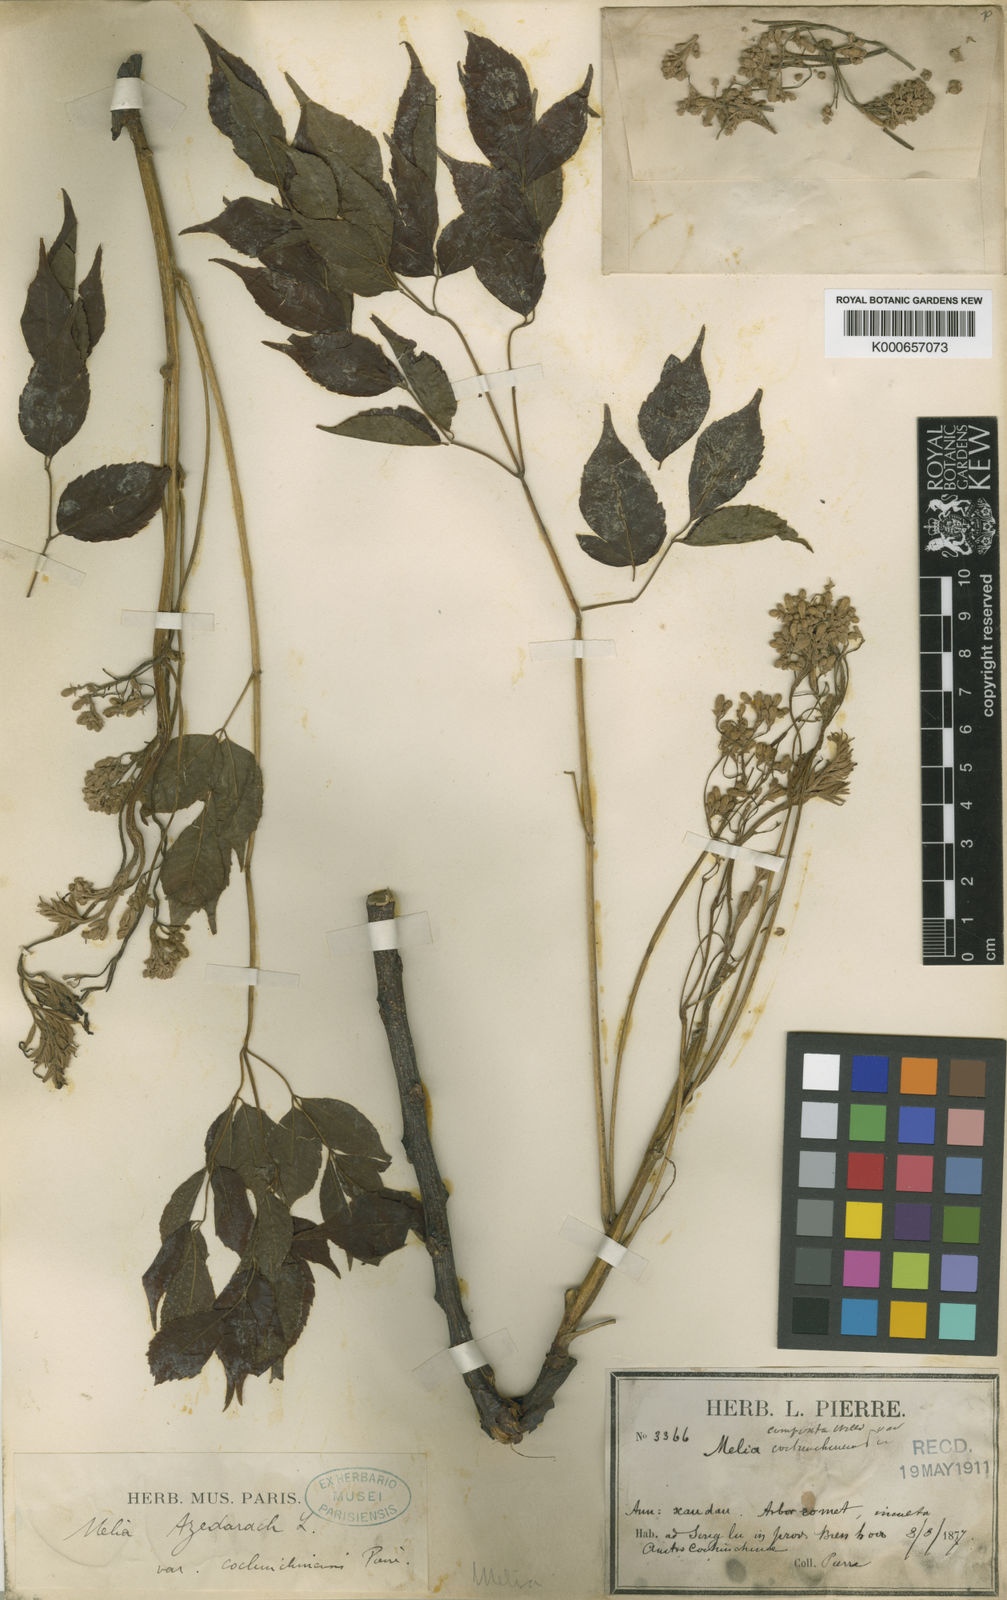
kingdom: Plantae
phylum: Tracheophyta
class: Magnoliopsida
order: Sapindales
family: Meliaceae
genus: Melia
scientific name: Melia azedarach
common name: Chinaberrytree
